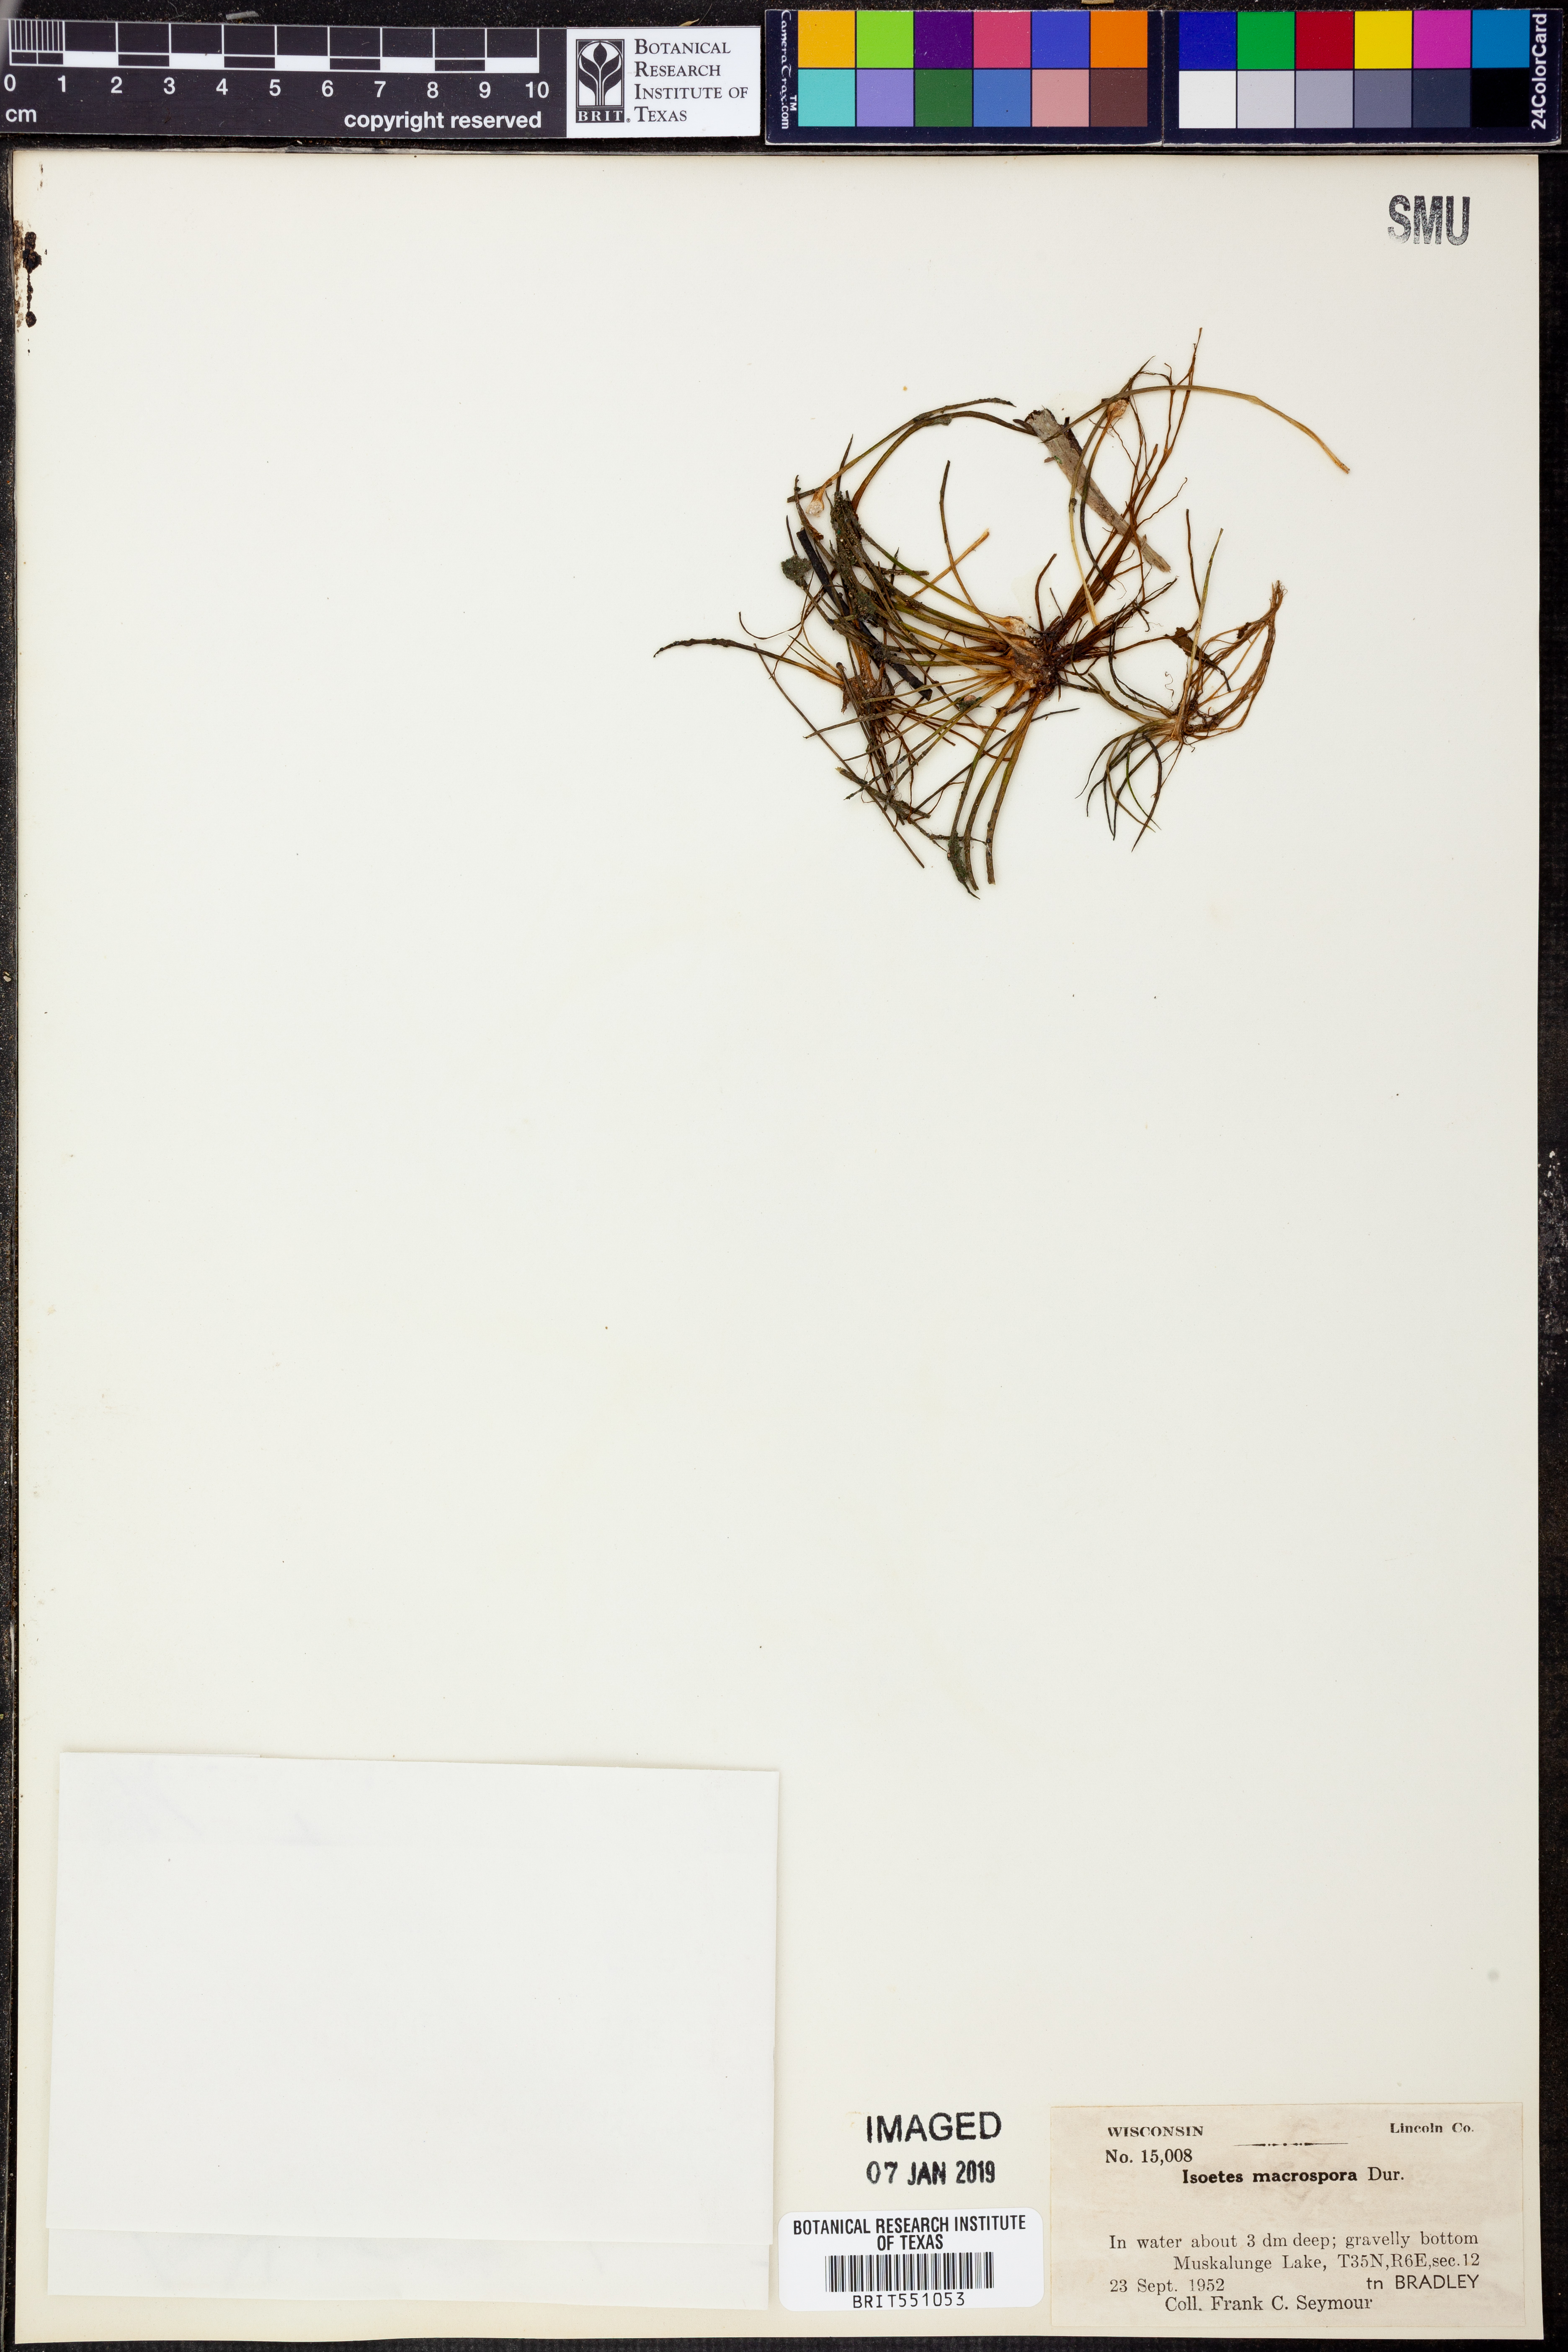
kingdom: Plantae
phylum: Tracheophyta
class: Lycopodiopsida
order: Isoetales
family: Isoetaceae
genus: Isoetes
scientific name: Isoetes lacustris
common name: Common quillwort
